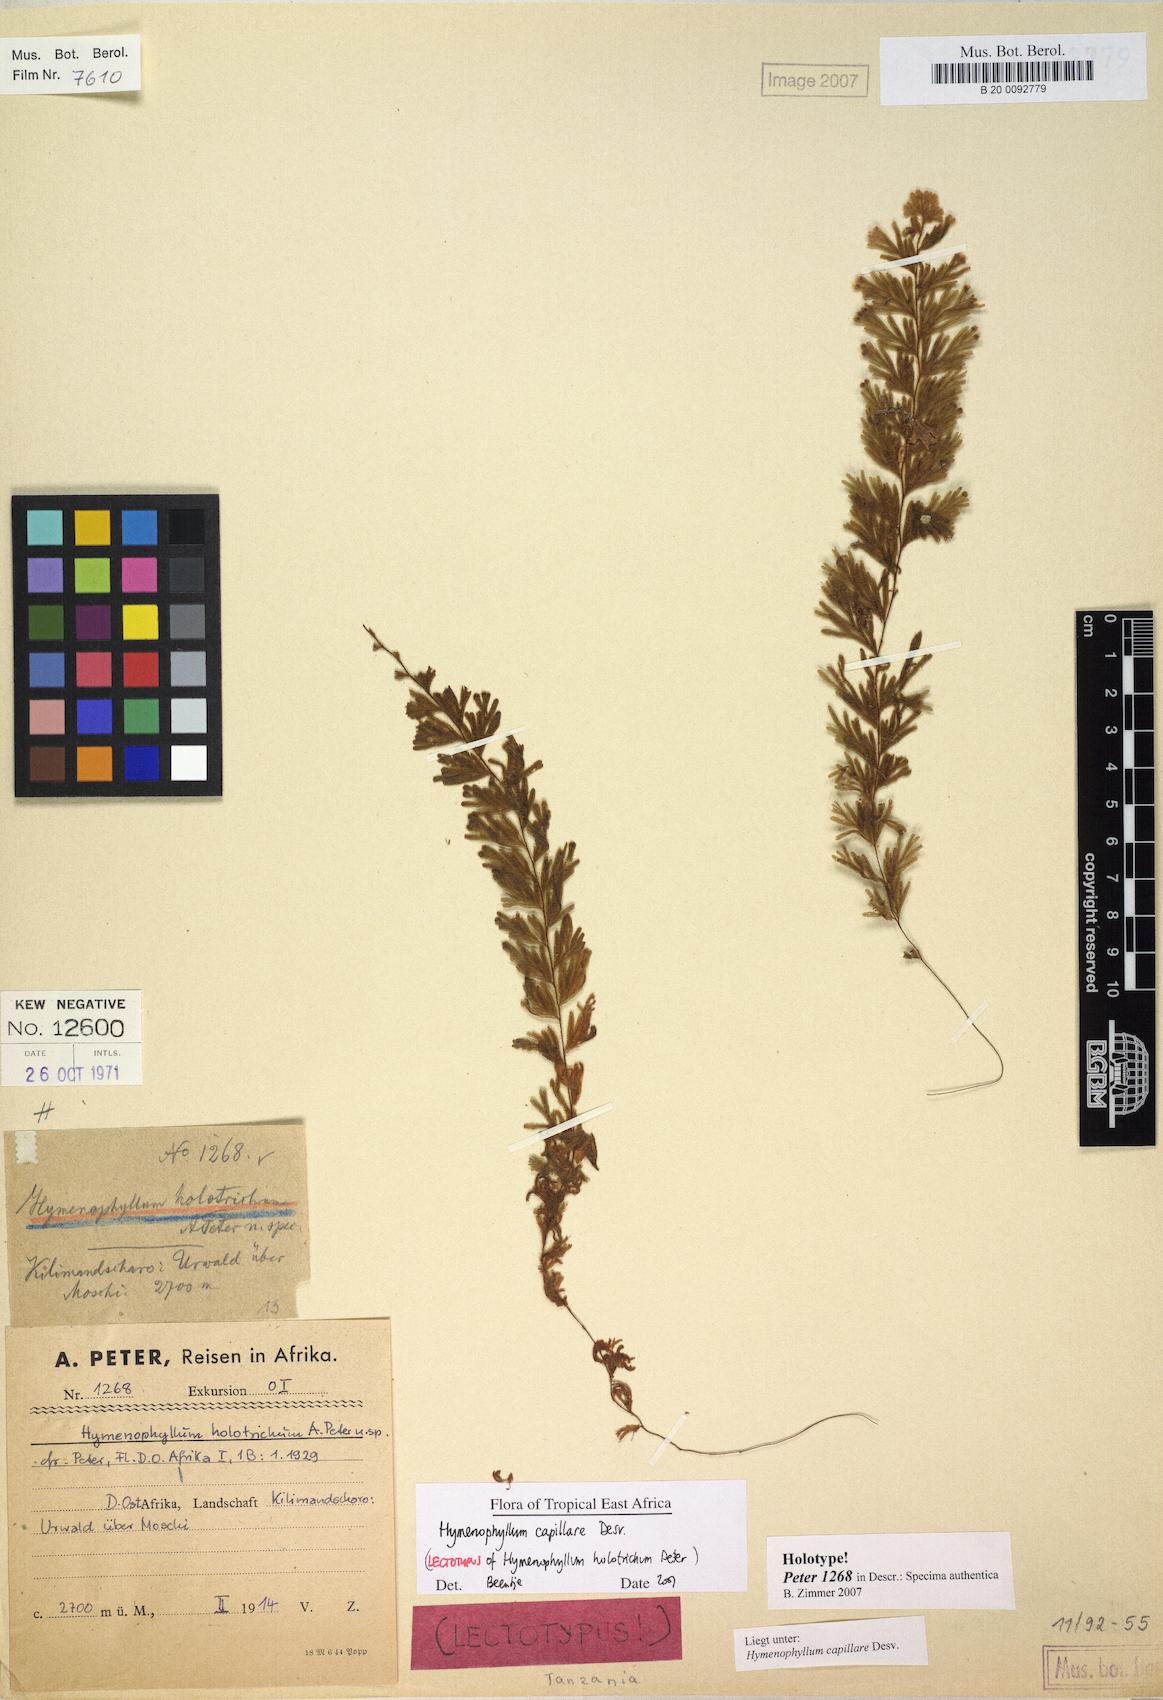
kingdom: Plantae
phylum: Tracheophyta
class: Polypodiopsida
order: Hymenophyllales
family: Hymenophyllaceae
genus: Hymenophyllum
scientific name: Hymenophyllum capillare
